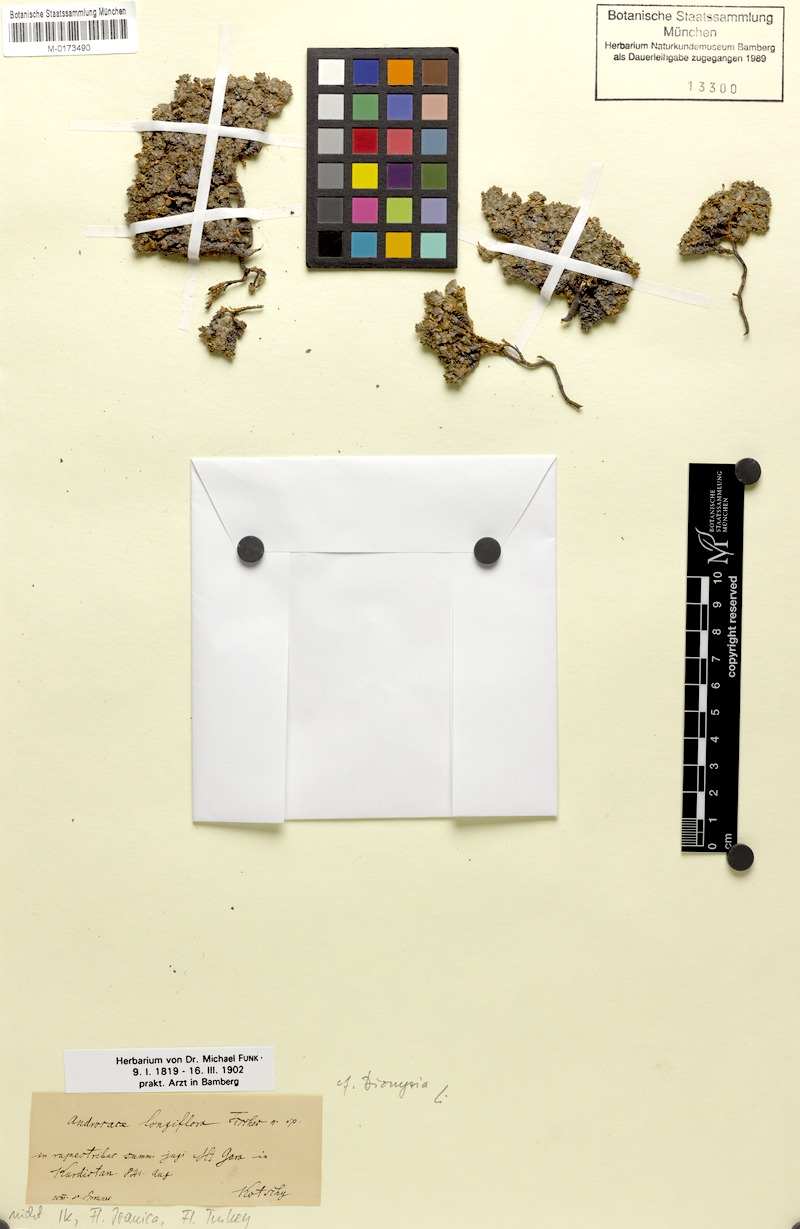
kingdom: Plantae
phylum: Tracheophyta
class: Magnoliopsida
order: Ericales
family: Primulaceae
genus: Dionysia
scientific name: Dionysia odora
